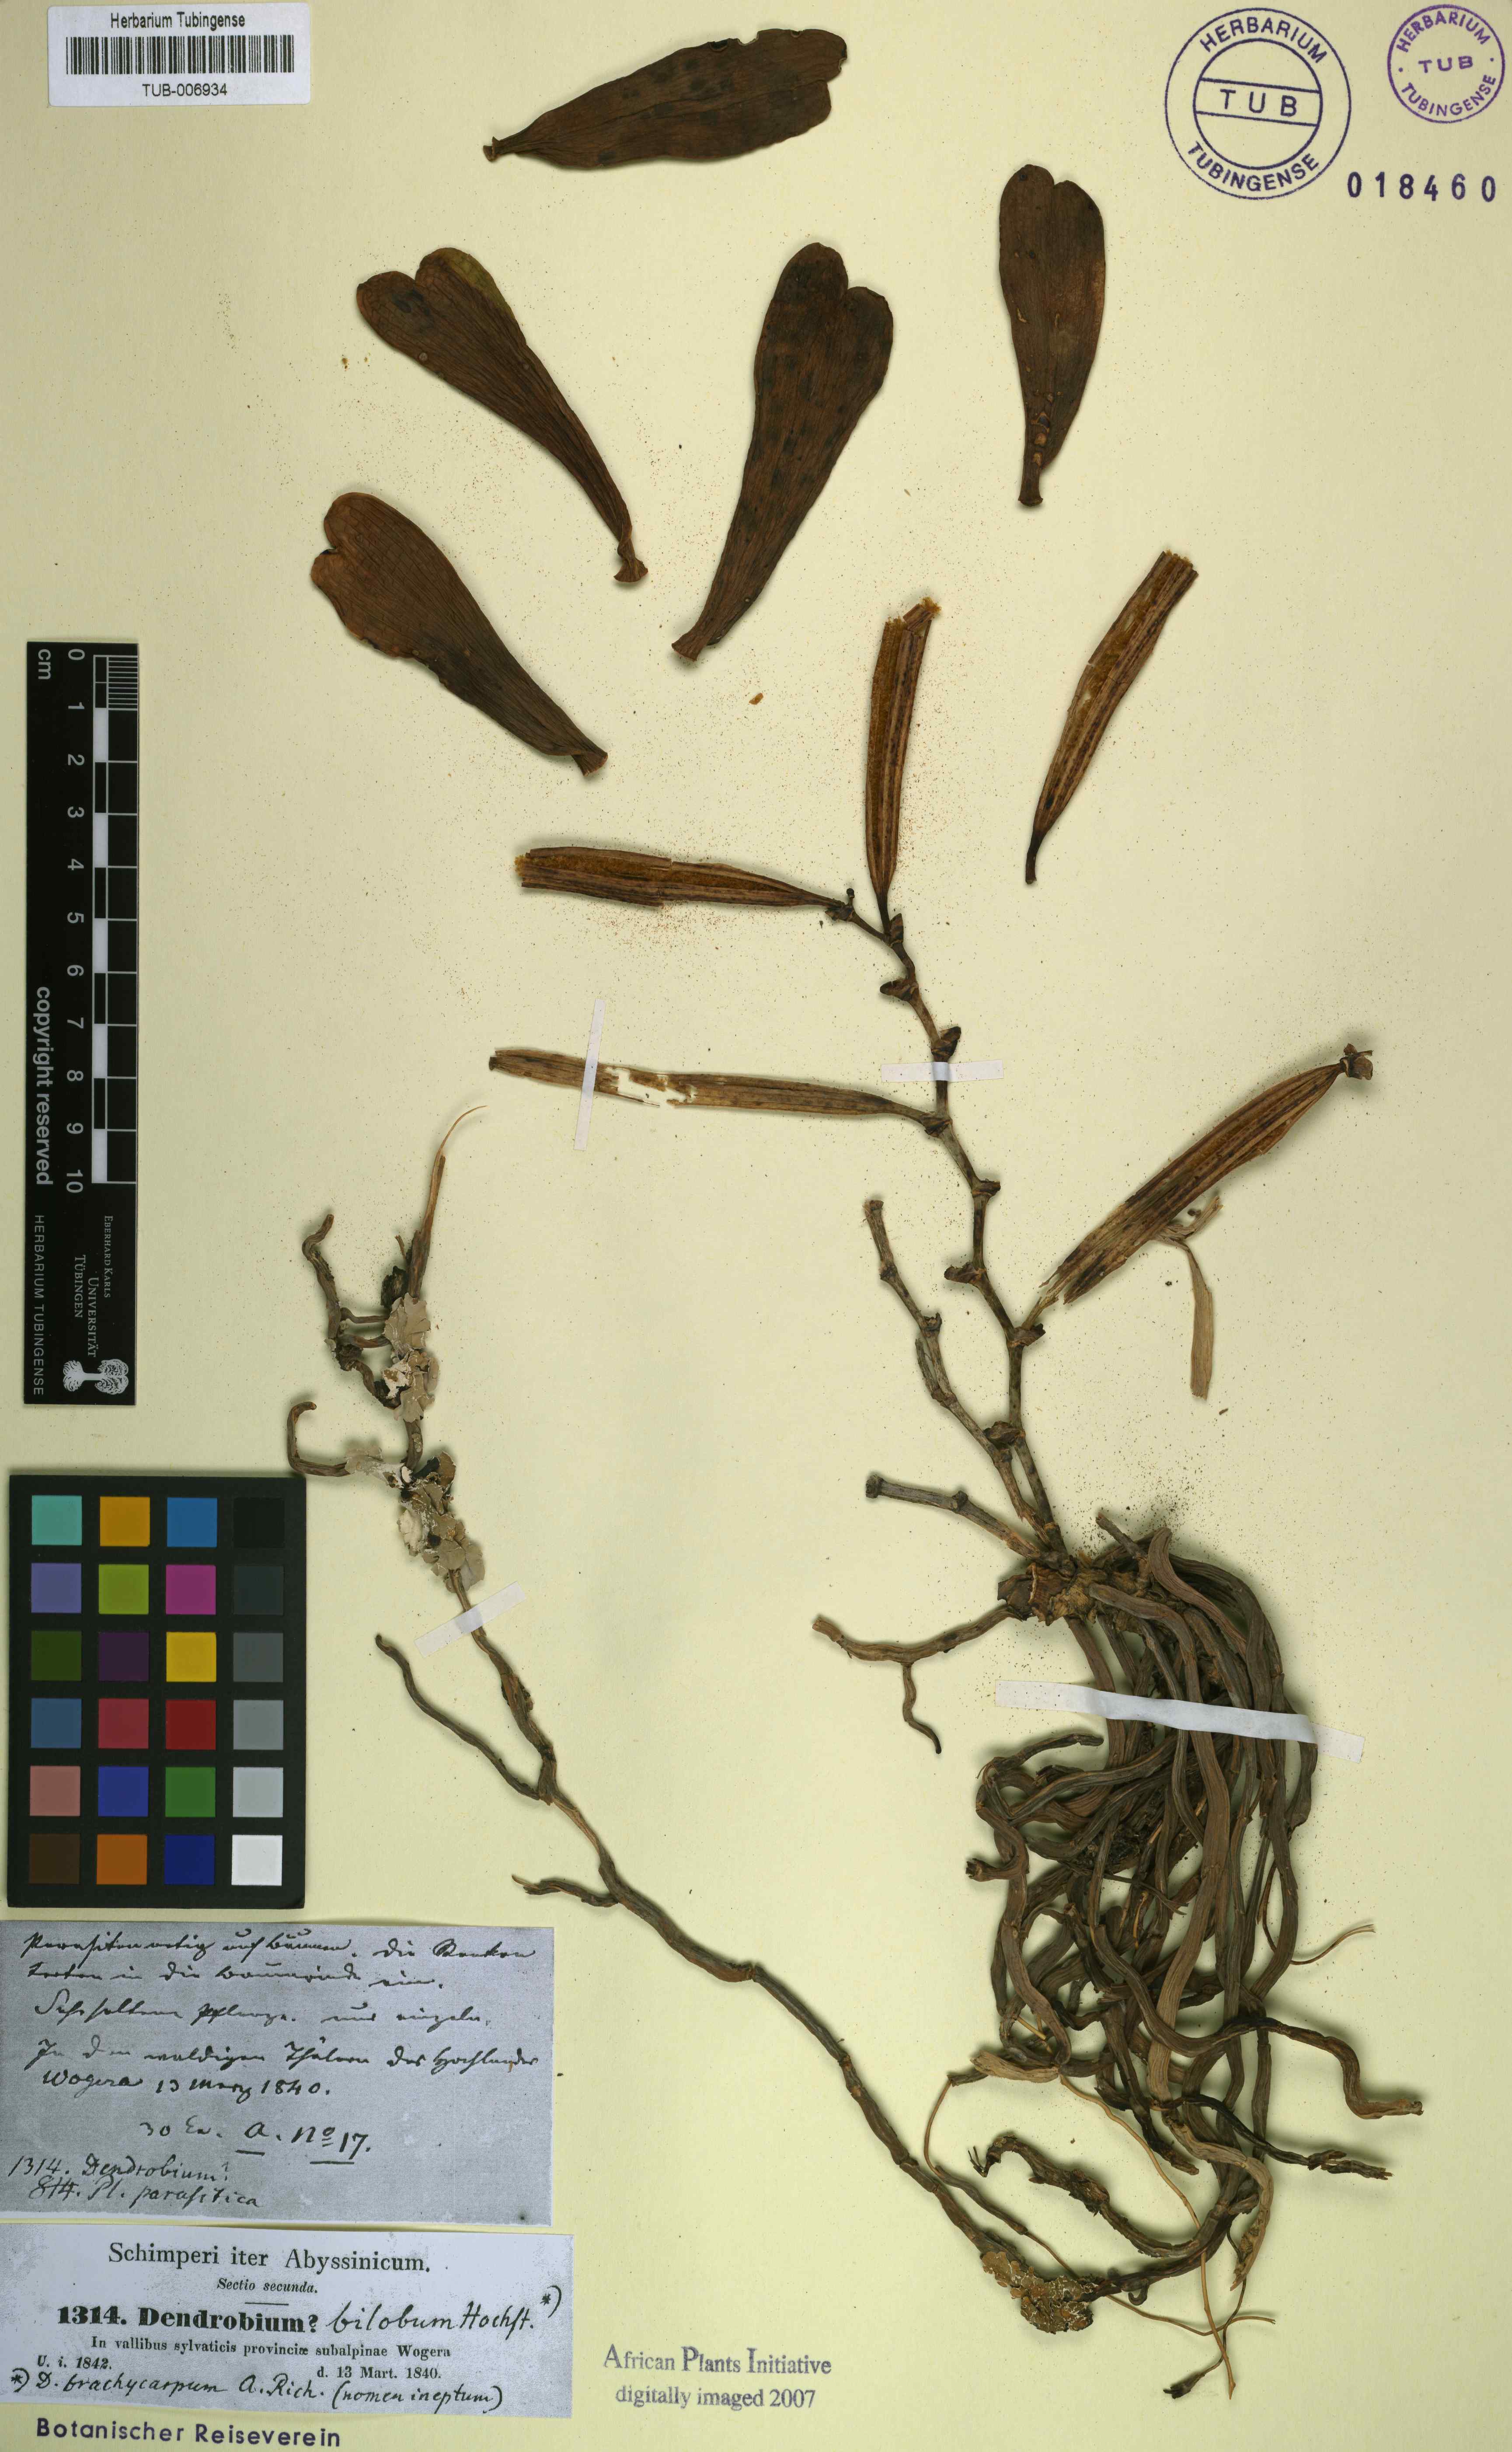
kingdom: Plantae
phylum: Tracheophyta
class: Liliopsida
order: Asparagales
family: Orchidaceae
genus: Dendrobium
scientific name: Dendrobium bilobum
